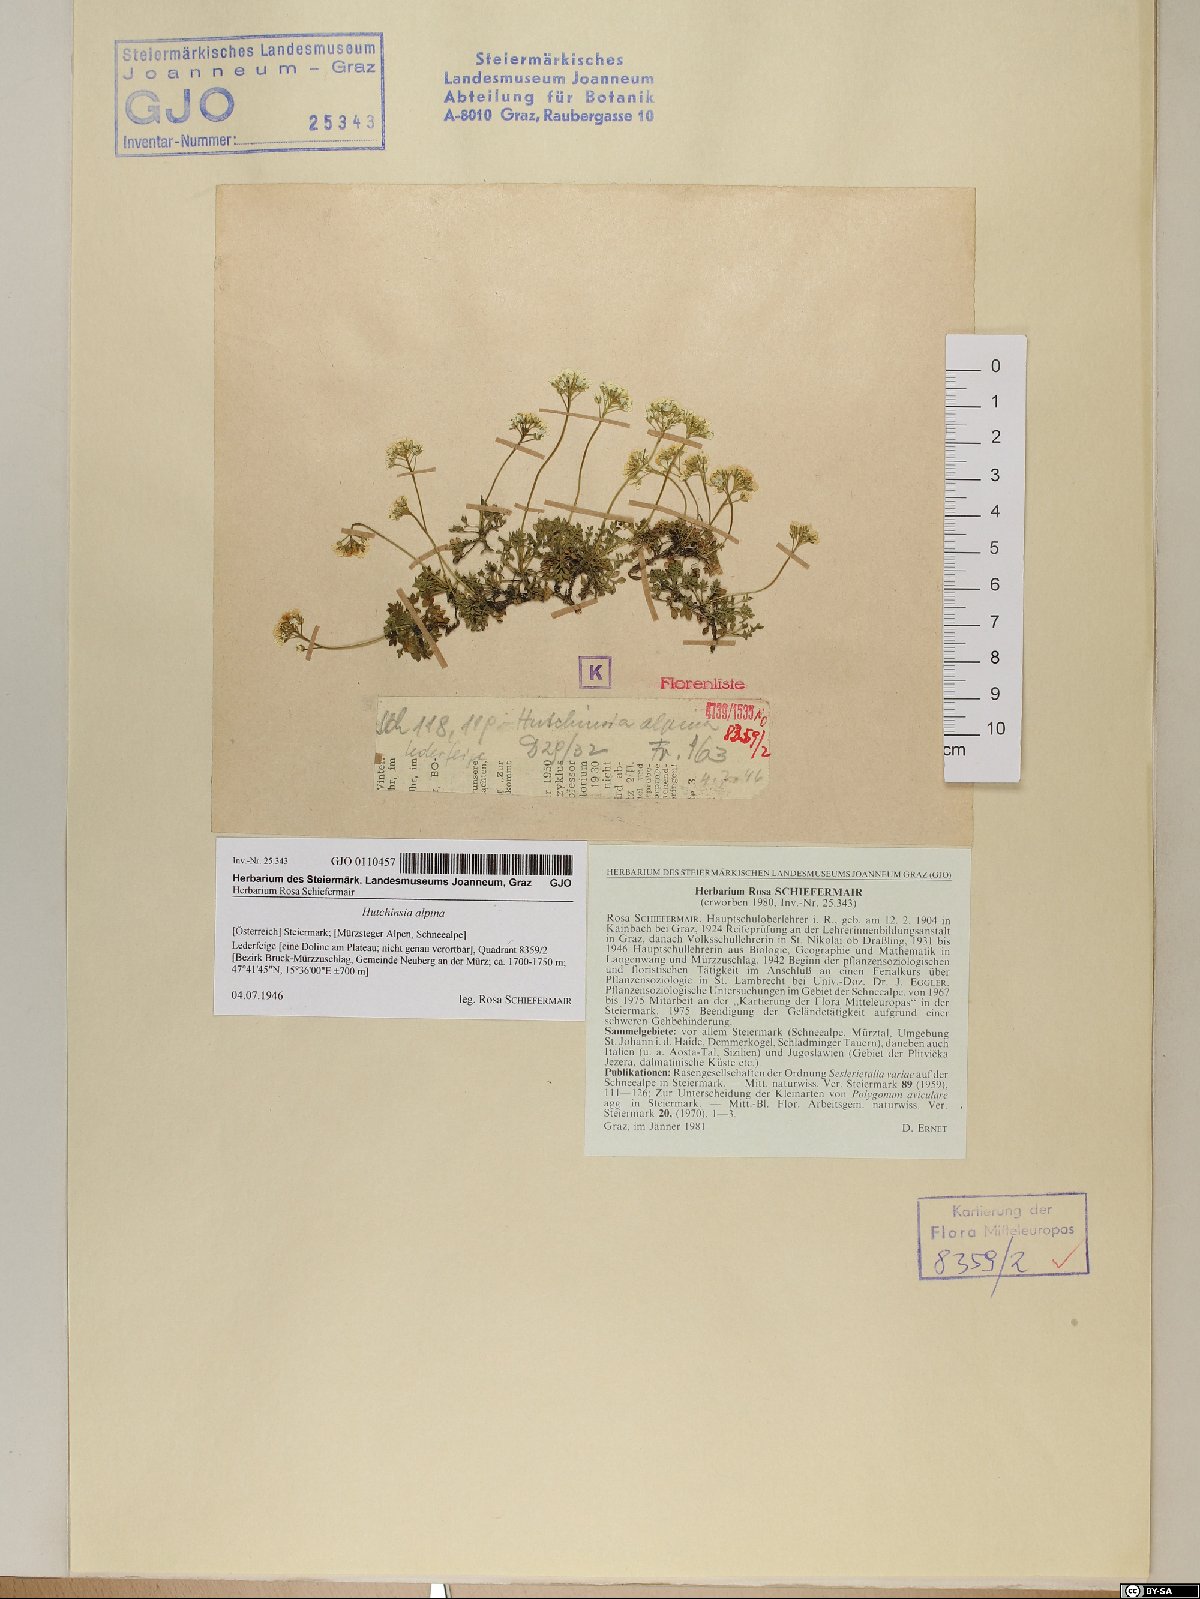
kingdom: Plantae
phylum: Tracheophyta
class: Magnoliopsida
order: Brassicales
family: Brassicaceae
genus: Hornungia
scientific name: Hornungia alpina
